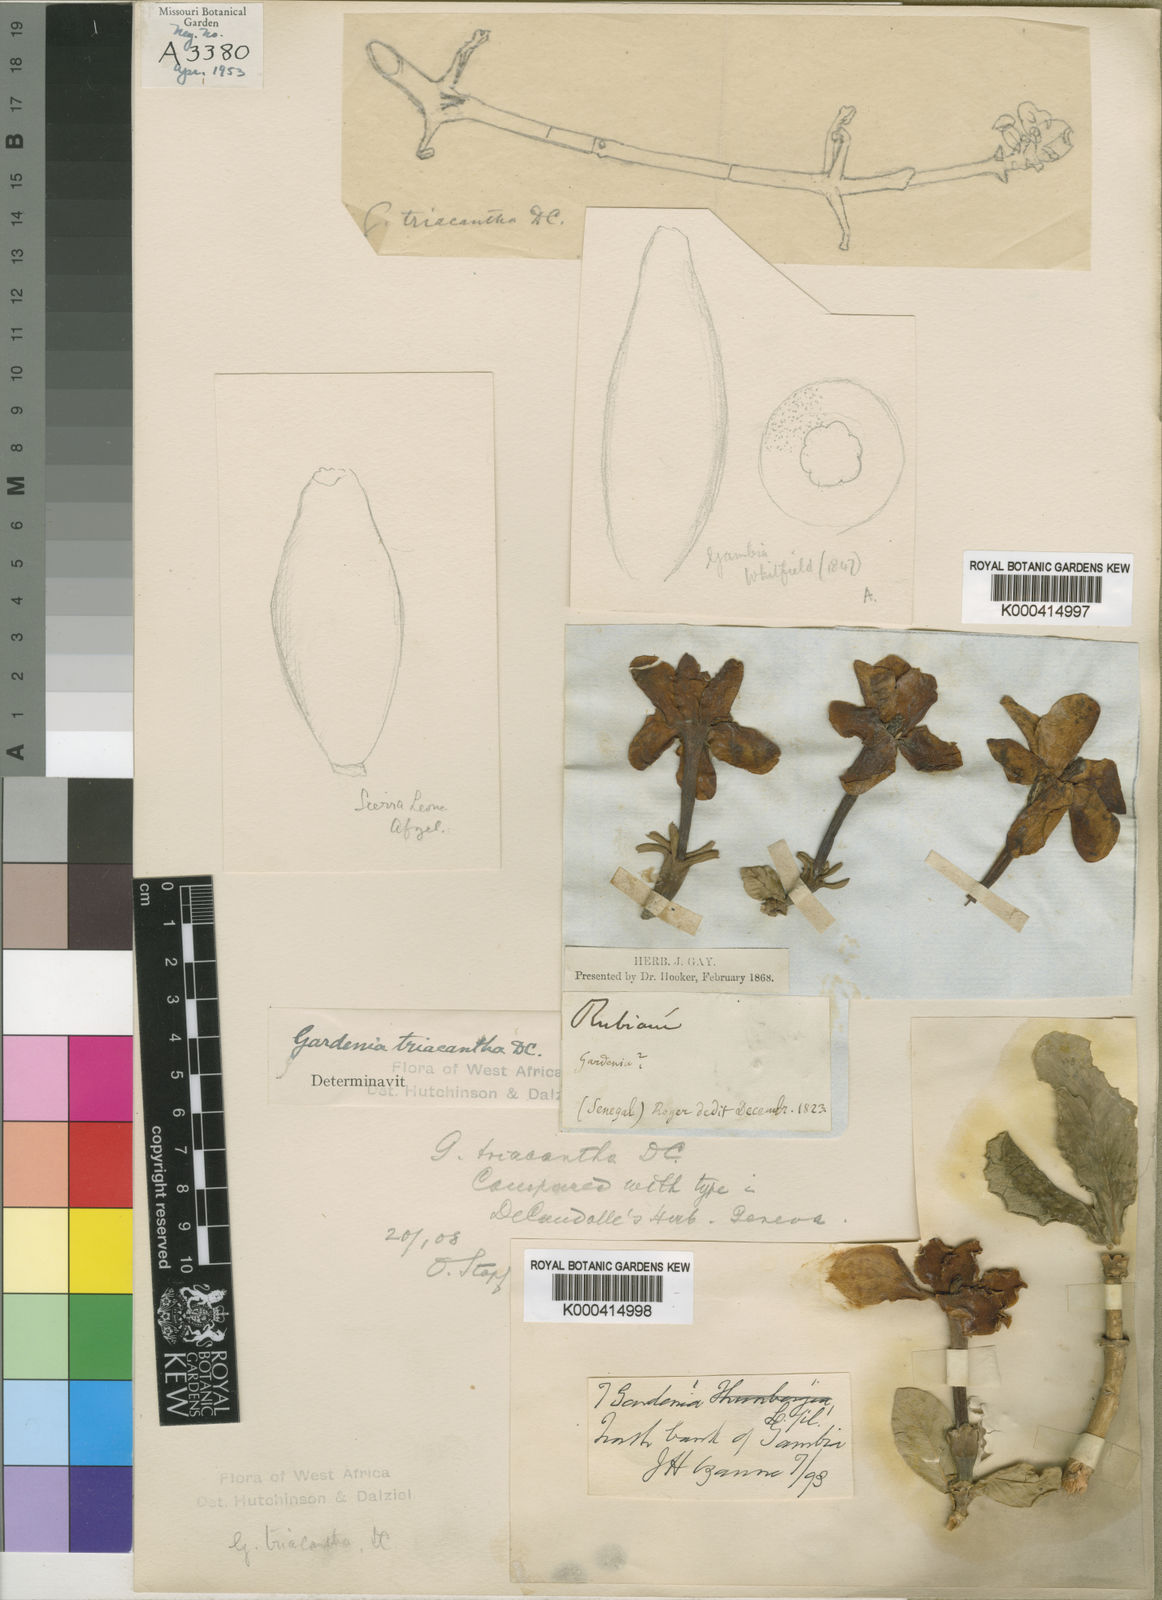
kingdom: Plantae
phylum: Tracheophyta
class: Magnoliopsida
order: Gentianales
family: Rubiaceae
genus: Gardenia
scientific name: Gardenia ternifolia
